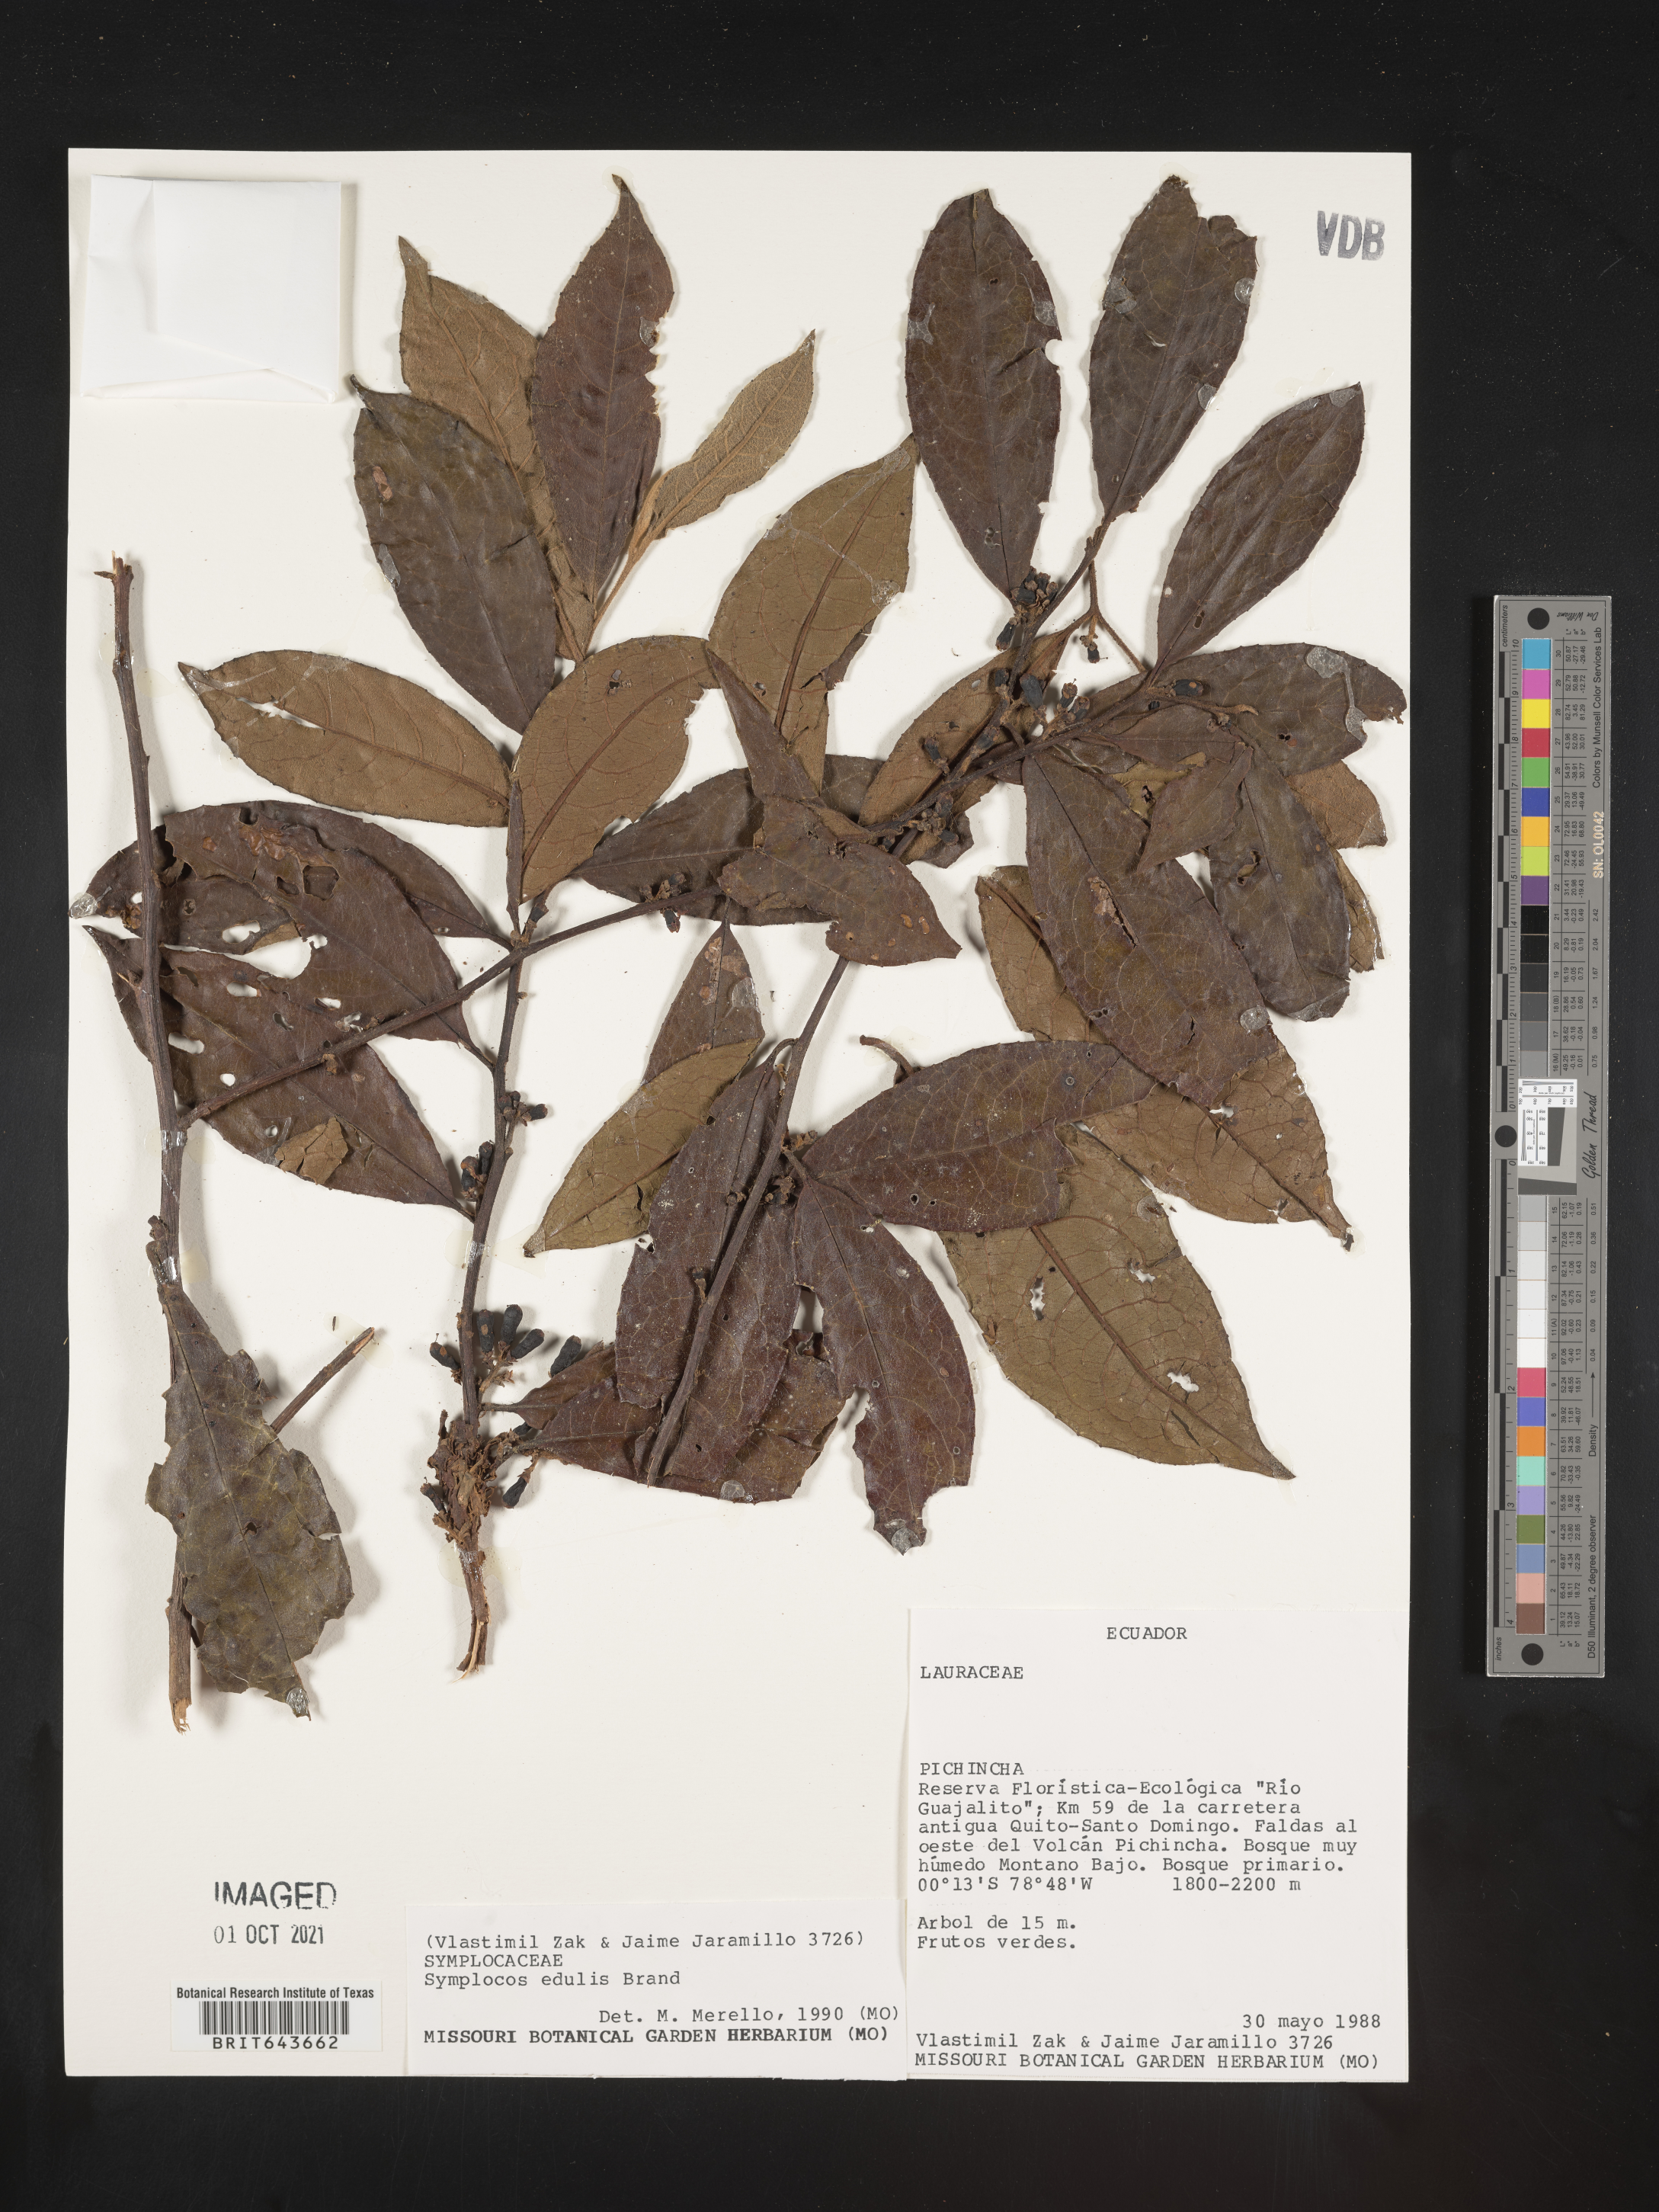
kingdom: Plantae
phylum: Tracheophyta
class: Magnoliopsida
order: Ericales
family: Symplocaceae
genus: Symplocos
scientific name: Symplocos
